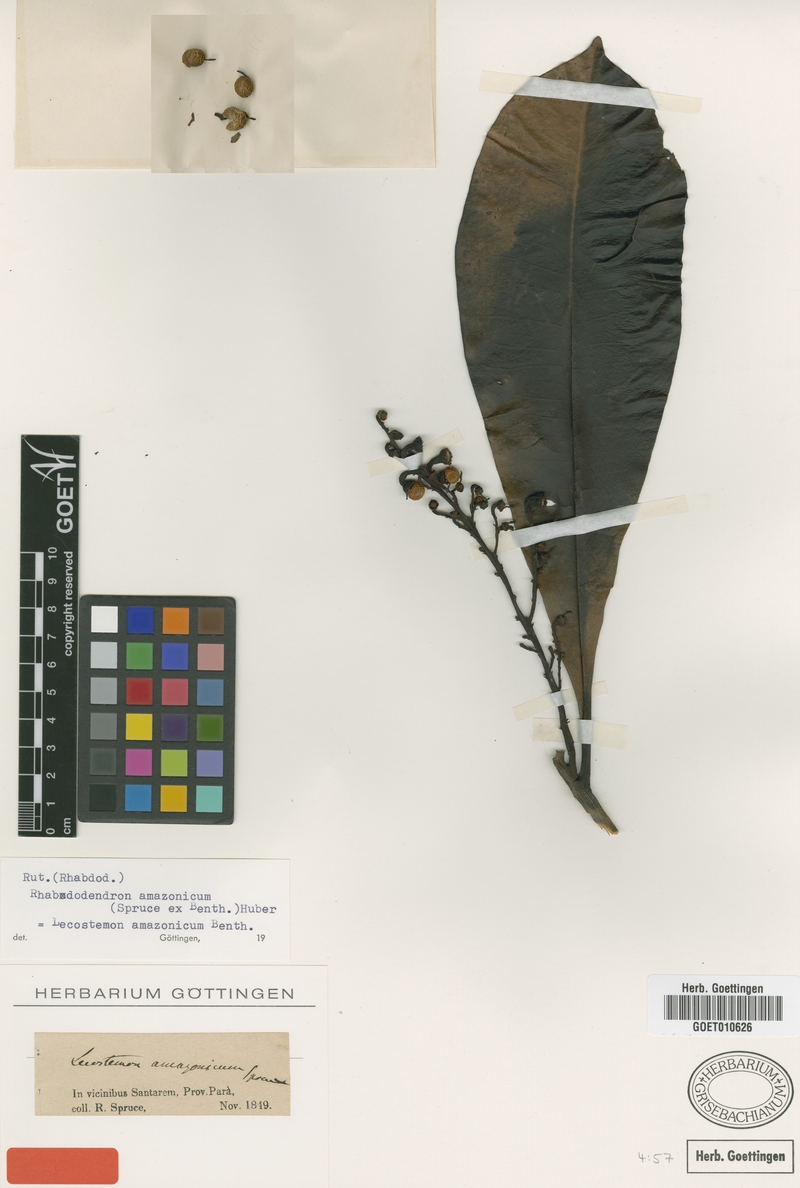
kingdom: Plantae
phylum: Tracheophyta
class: Magnoliopsida
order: Caryophyllales
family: Rhabdodendraceae
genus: Rhabdodendron
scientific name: Rhabdodendron amazonicum
